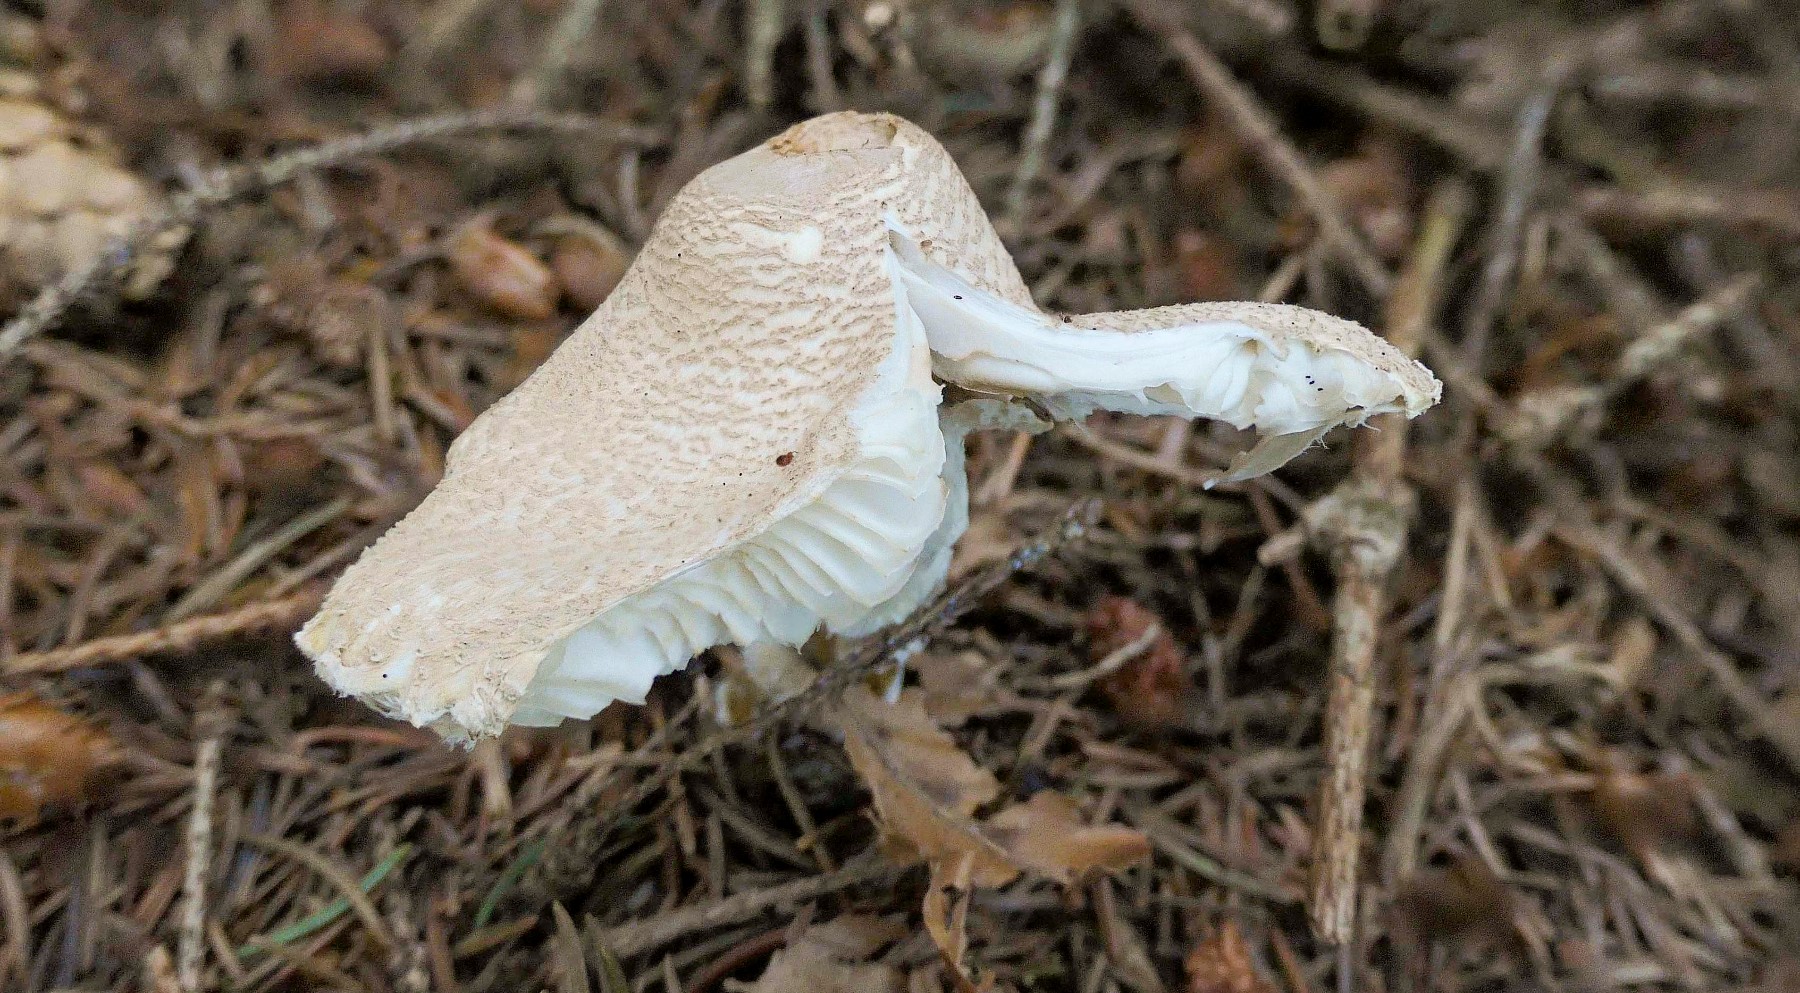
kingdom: Fungi
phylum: Basidiomycota
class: Agaricomycetes
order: Agaricales
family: Agaricaceae
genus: Lepiota
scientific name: Lepiota clypeolaria
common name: flosset parasolhat
